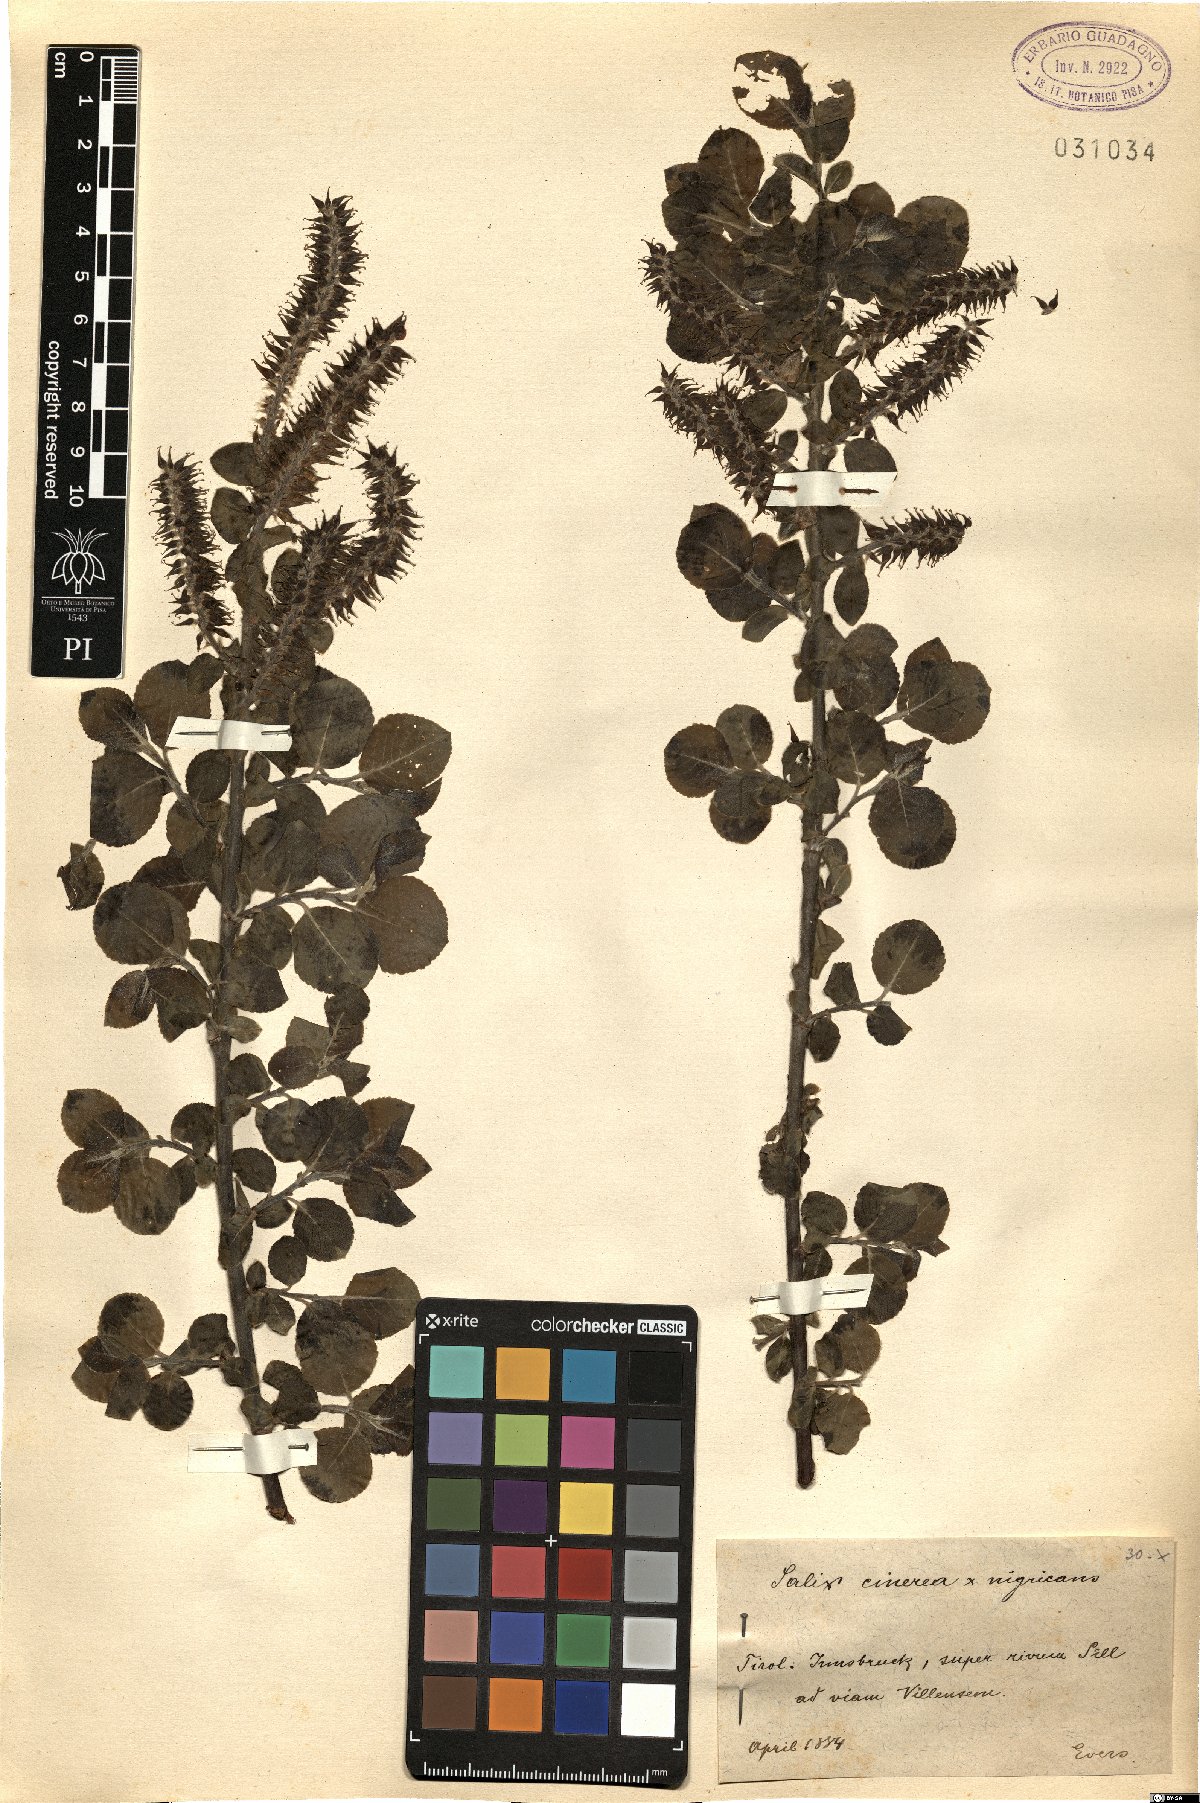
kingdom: Plantae
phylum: Tracheophyta
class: Magnoliopsida
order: Malpighiales
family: Salicaceae
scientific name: Salicaceae
